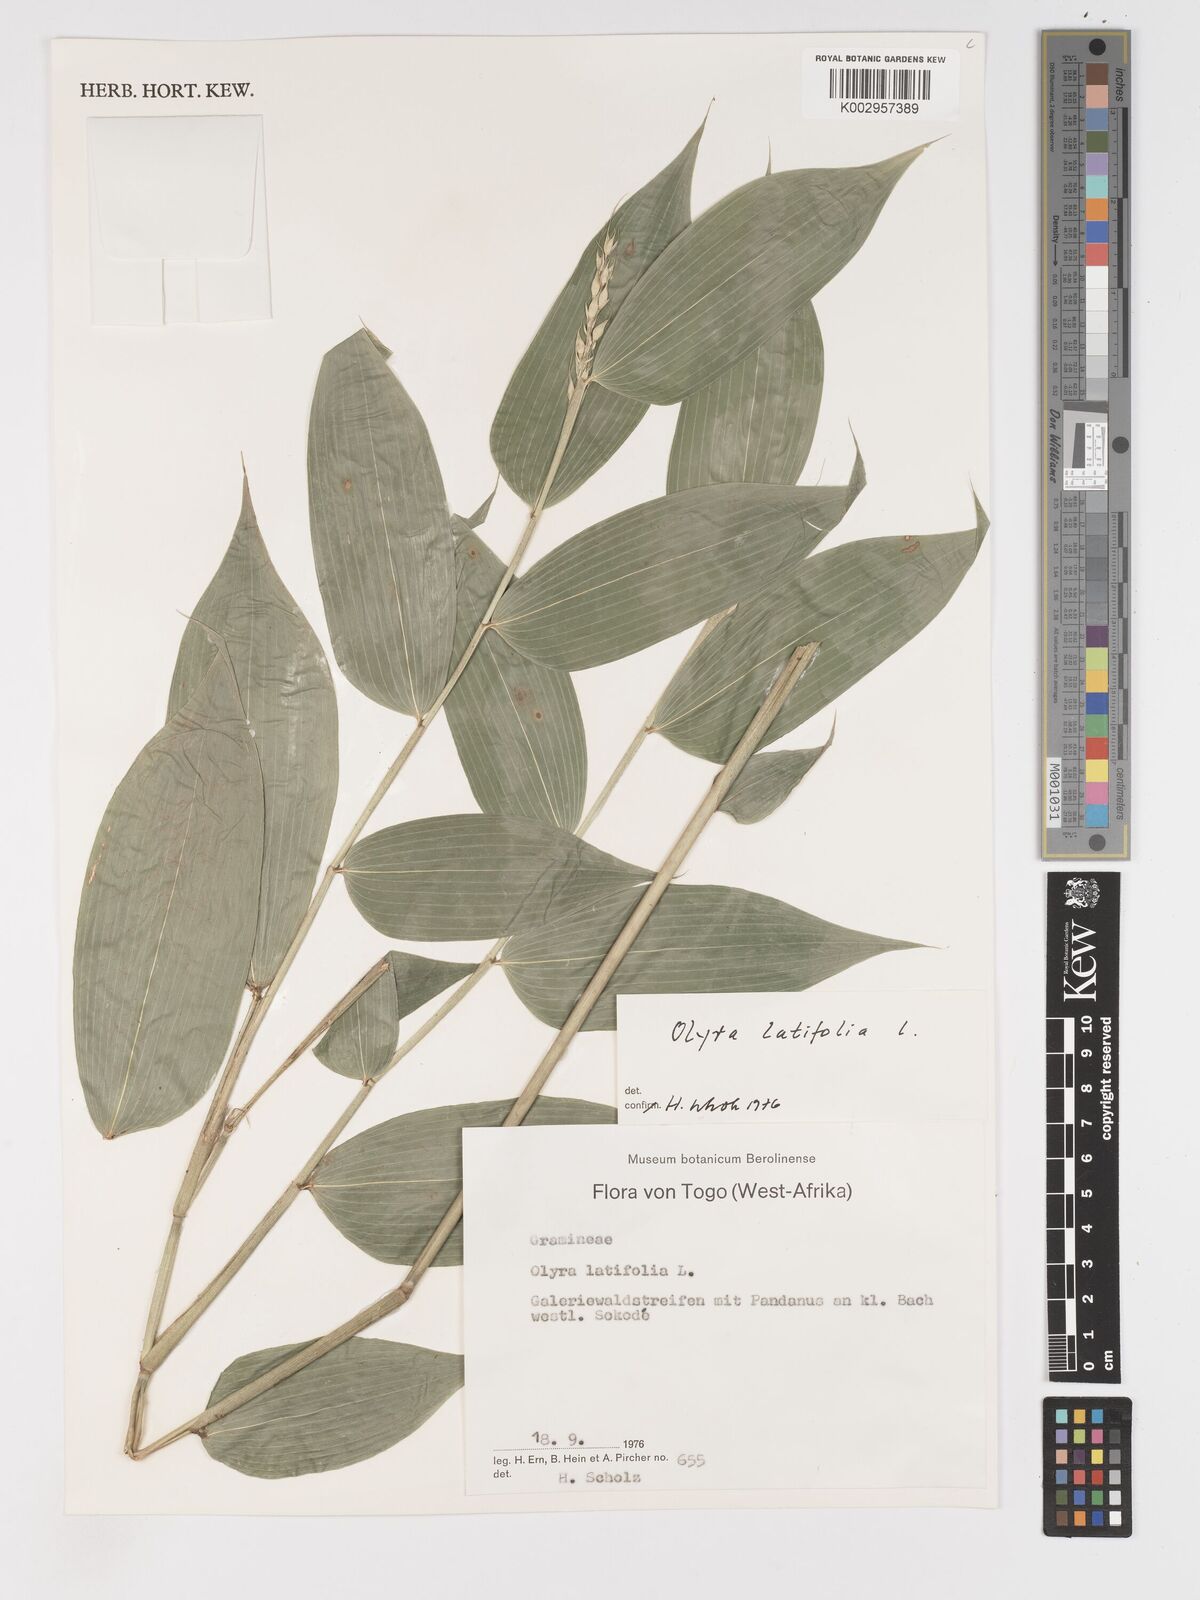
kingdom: Plantae
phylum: Tracheophyta
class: Liliopsida
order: Poales
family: Poaceae
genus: Olyra
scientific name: Olyra latifolia
